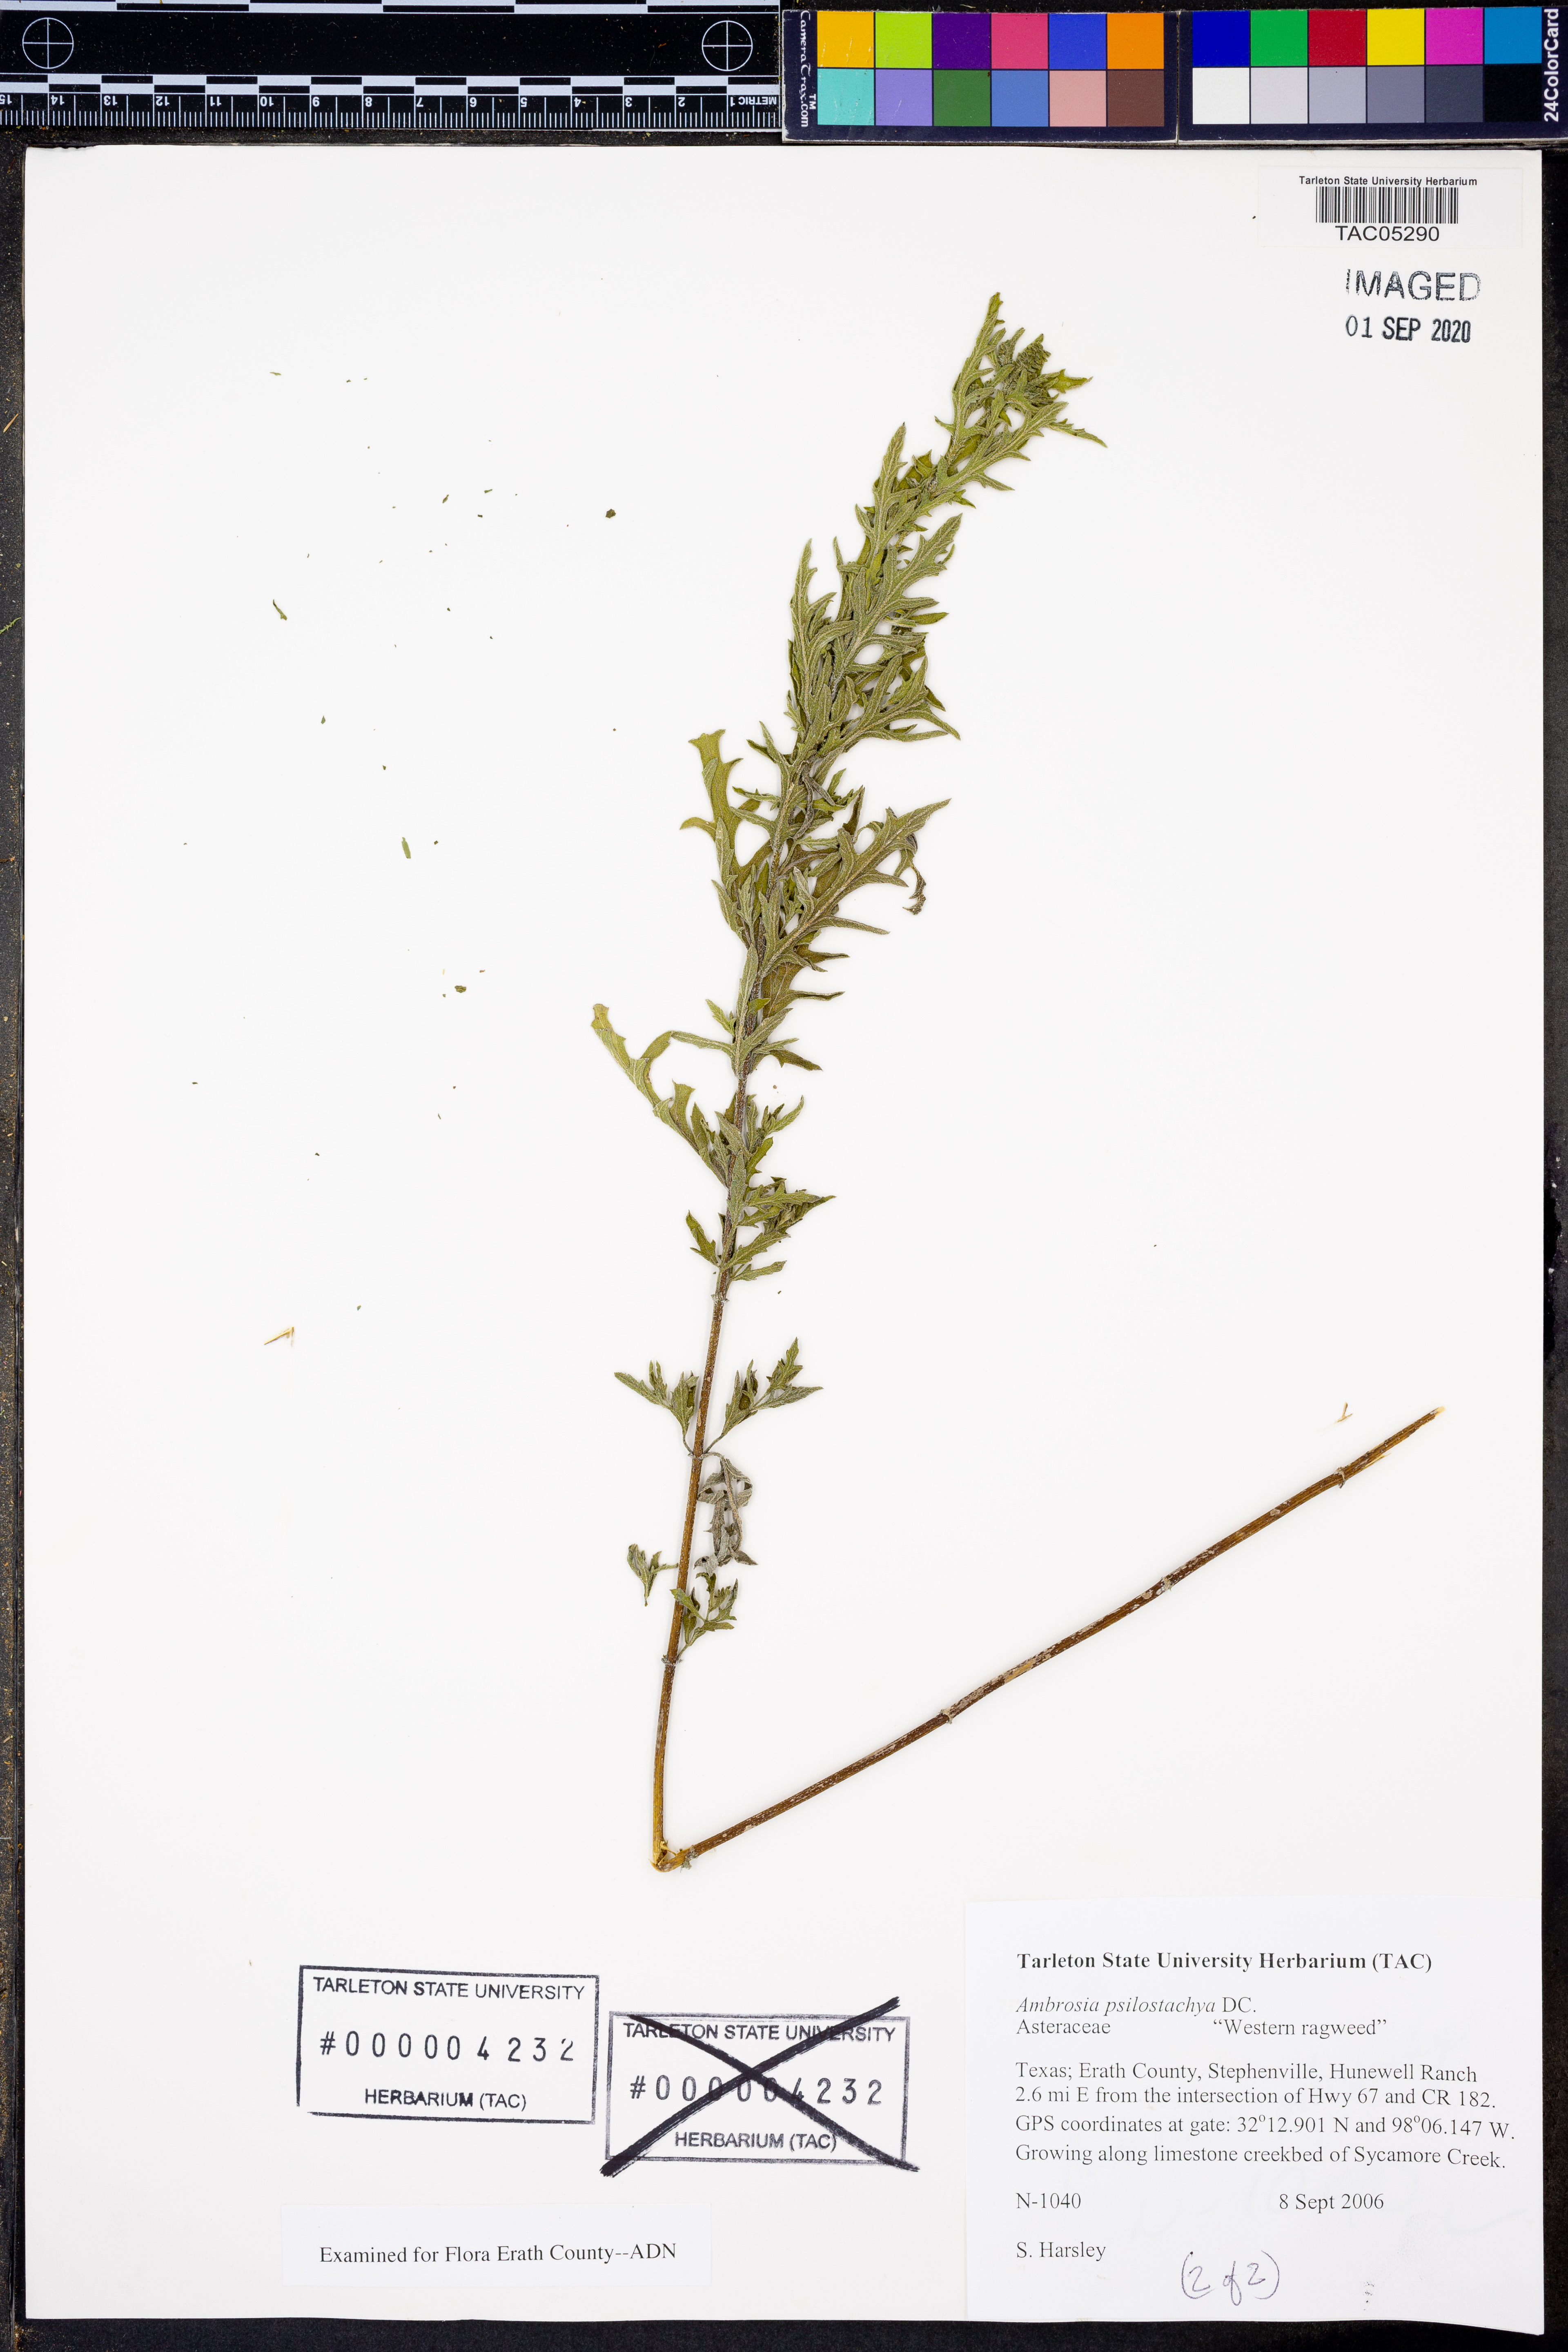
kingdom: Plantae
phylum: Tracheophyta
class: Magnoliopsida
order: Asterales
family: Asteraceae
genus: Ambrosia
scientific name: Ambrosia psilostachya
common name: Perennial ragweed
